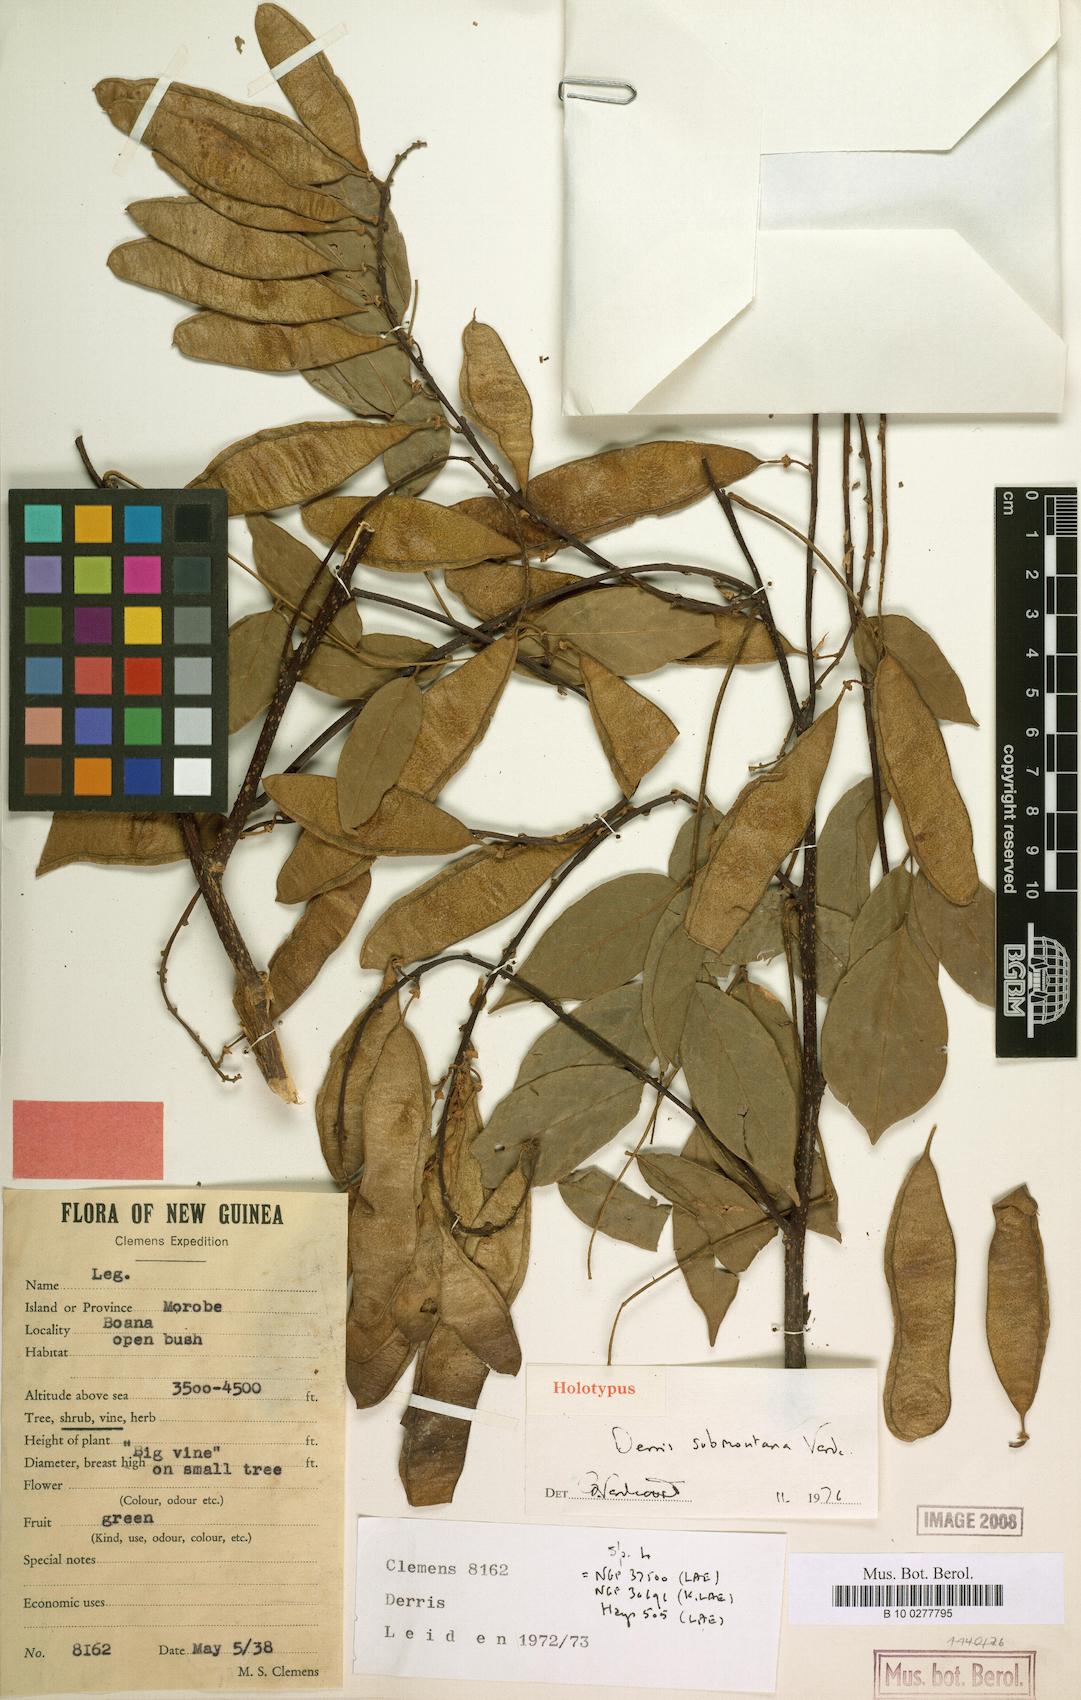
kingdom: Plantae
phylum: Tracheophyta
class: Magnoliopsida
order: Fabales
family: Fabaceae
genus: Brachypterum
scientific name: Brachypterum submontanum
